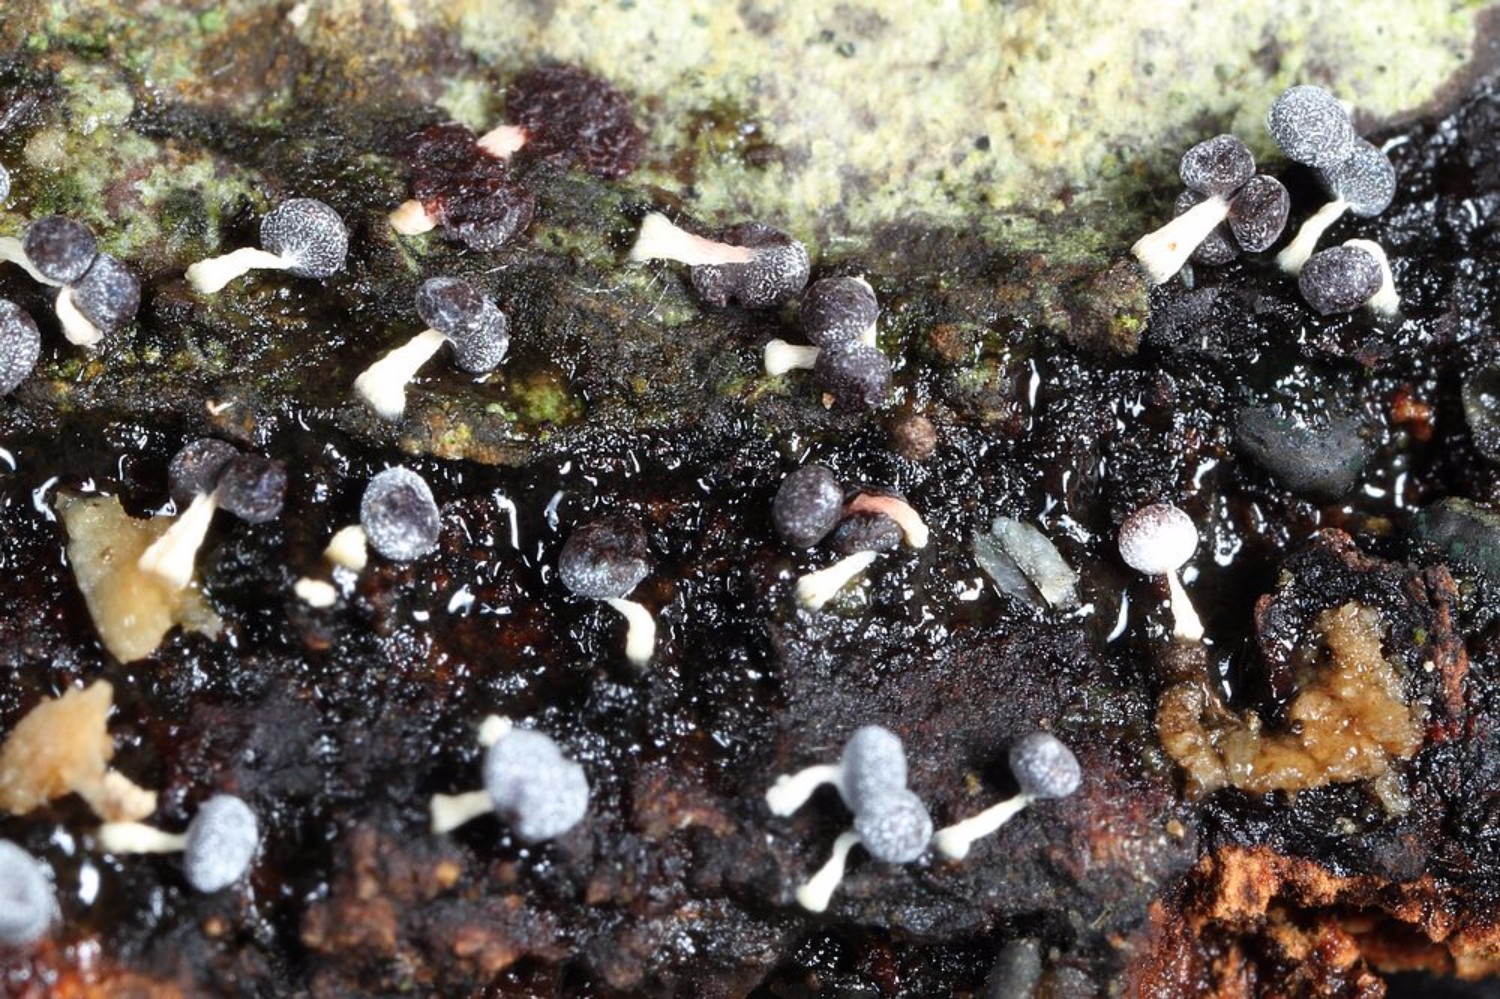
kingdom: Protozoa
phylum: Mycetozoa
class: Myxomycetes
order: Physarales
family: Physaraceae
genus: Physarum
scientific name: Physarum leucopus
